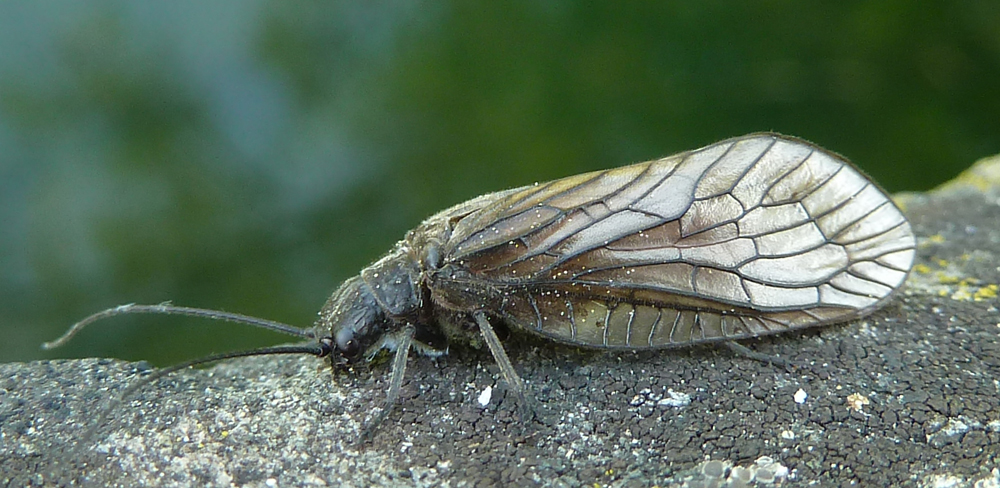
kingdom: Animalia
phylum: Arthropoda
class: Insecta
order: Megaloptera
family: Sialidae
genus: Sialis
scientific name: Sialis lutaria
